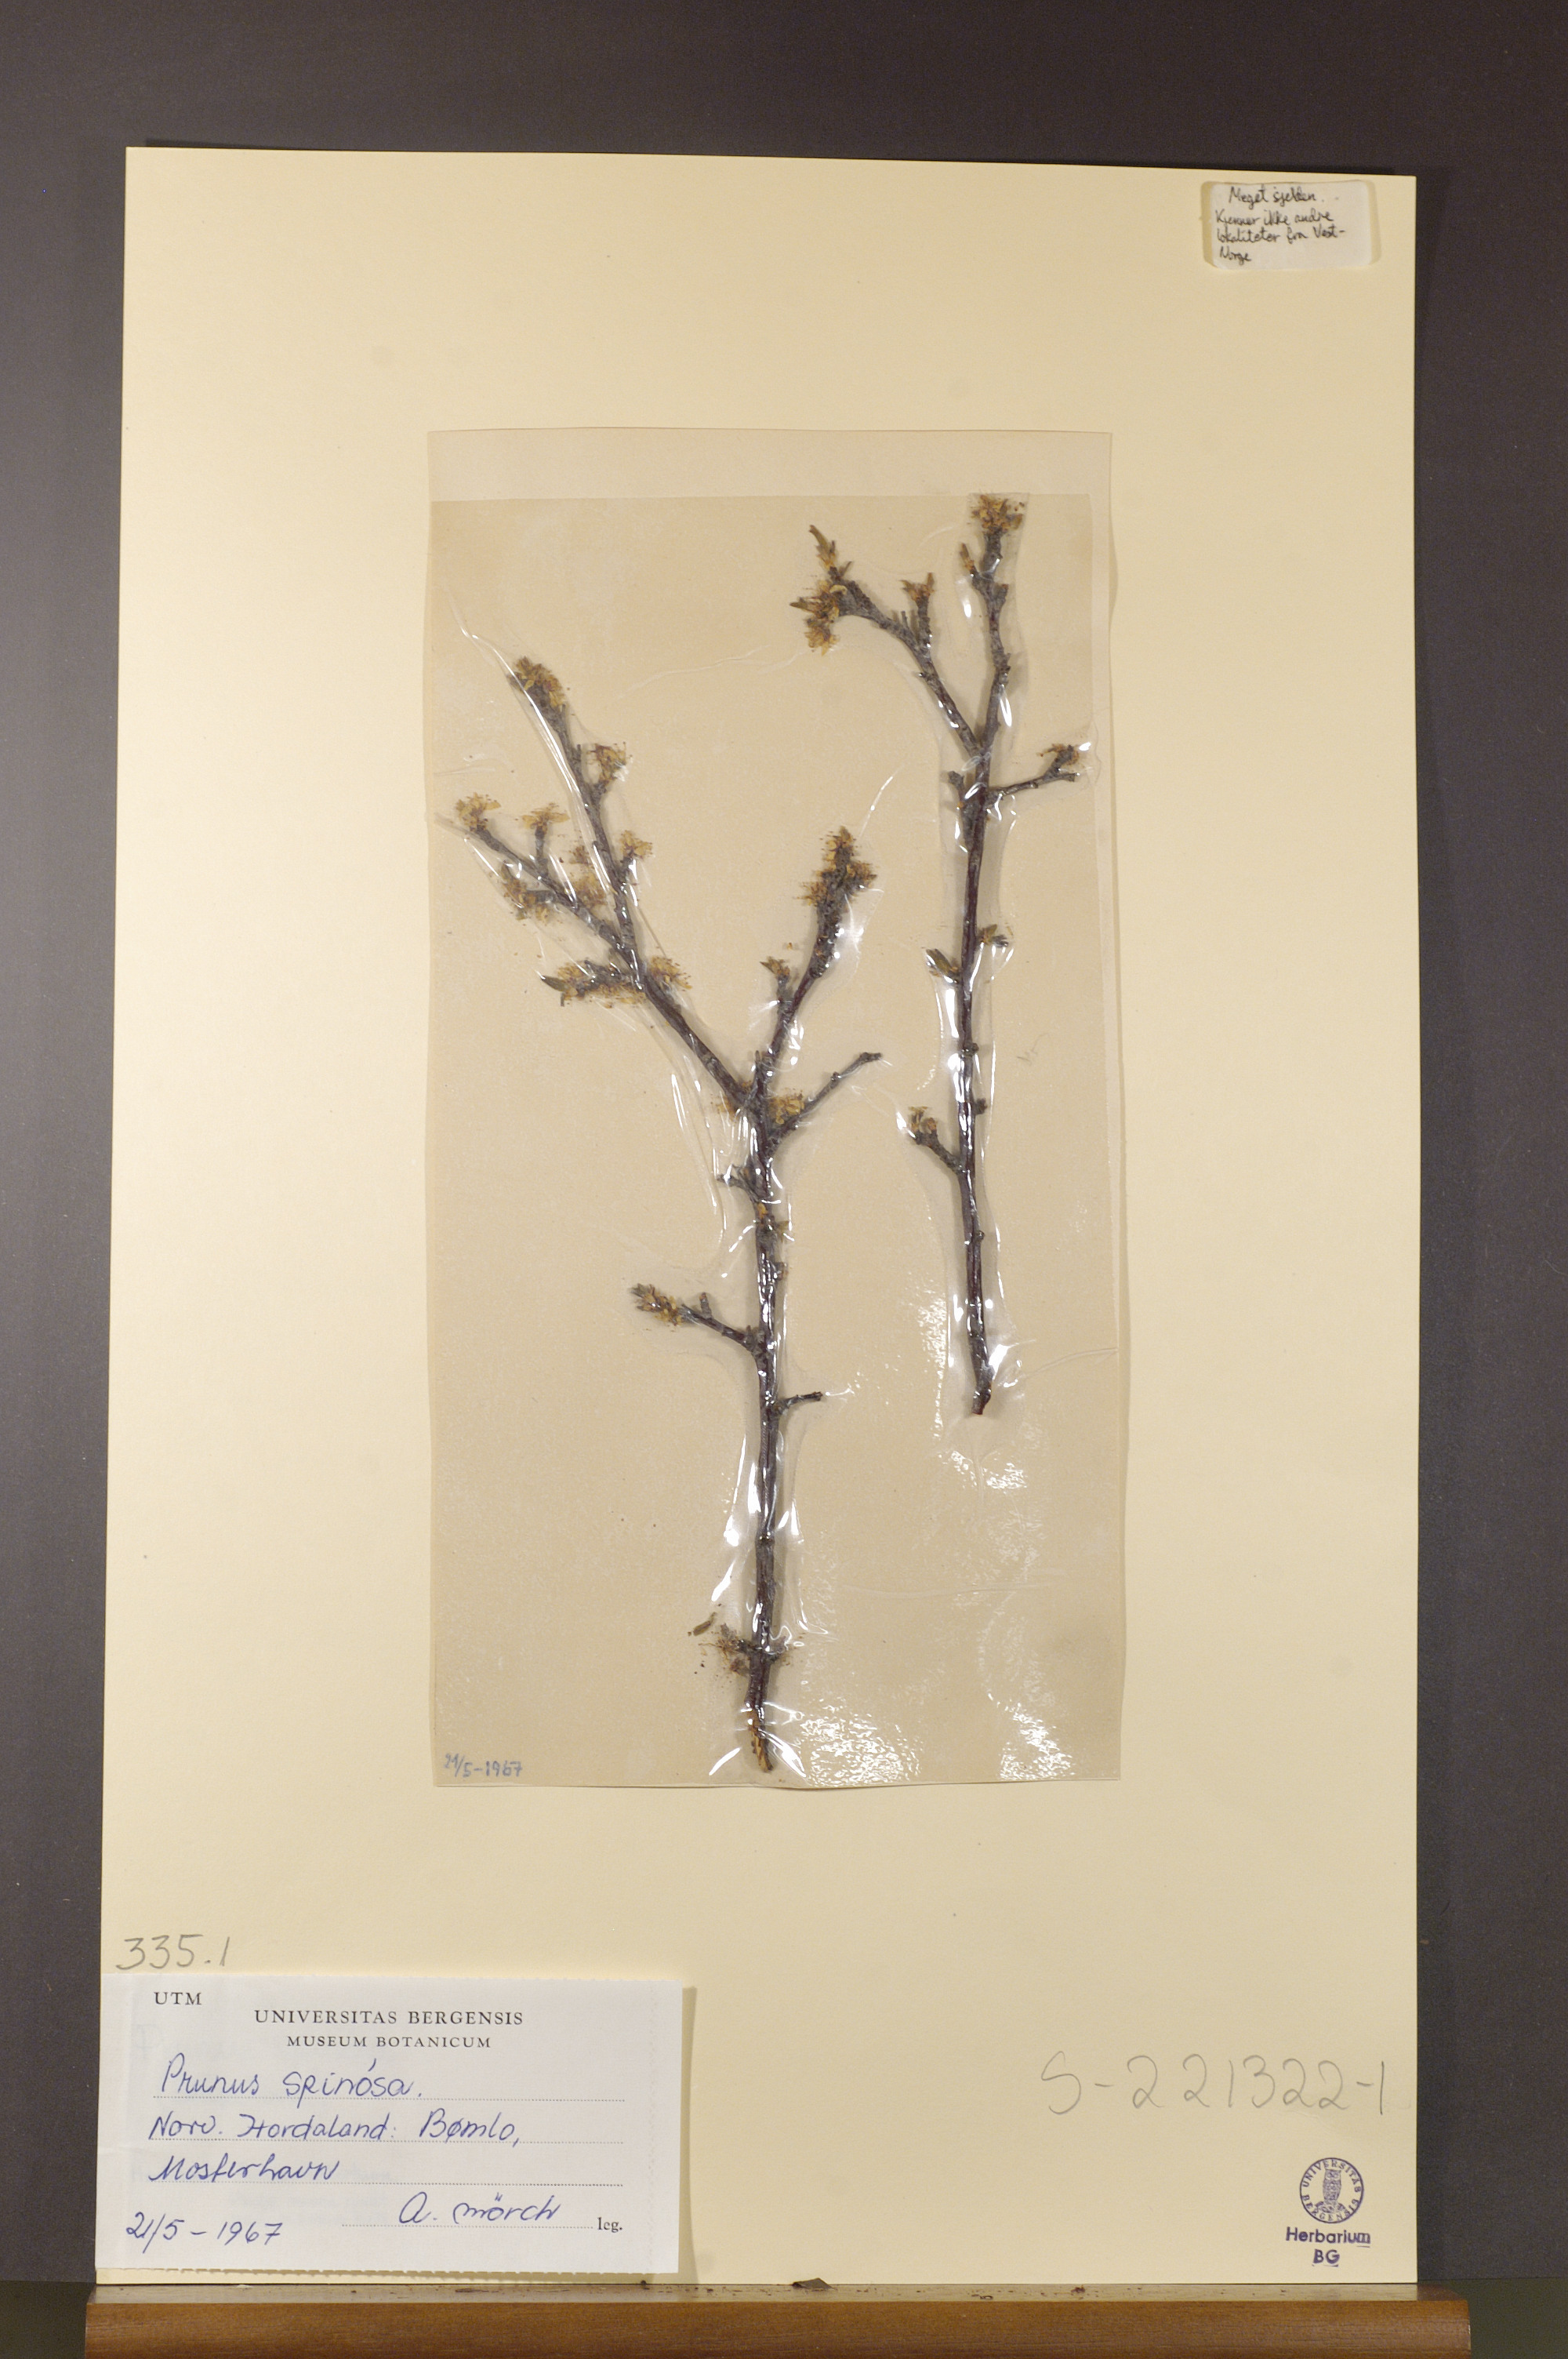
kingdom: Plantae
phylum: Tracheophyta
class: Magnoliopsida
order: Rosales
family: Rosaceae
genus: Prunus
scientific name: Prunus spinosa
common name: Blackthorn
